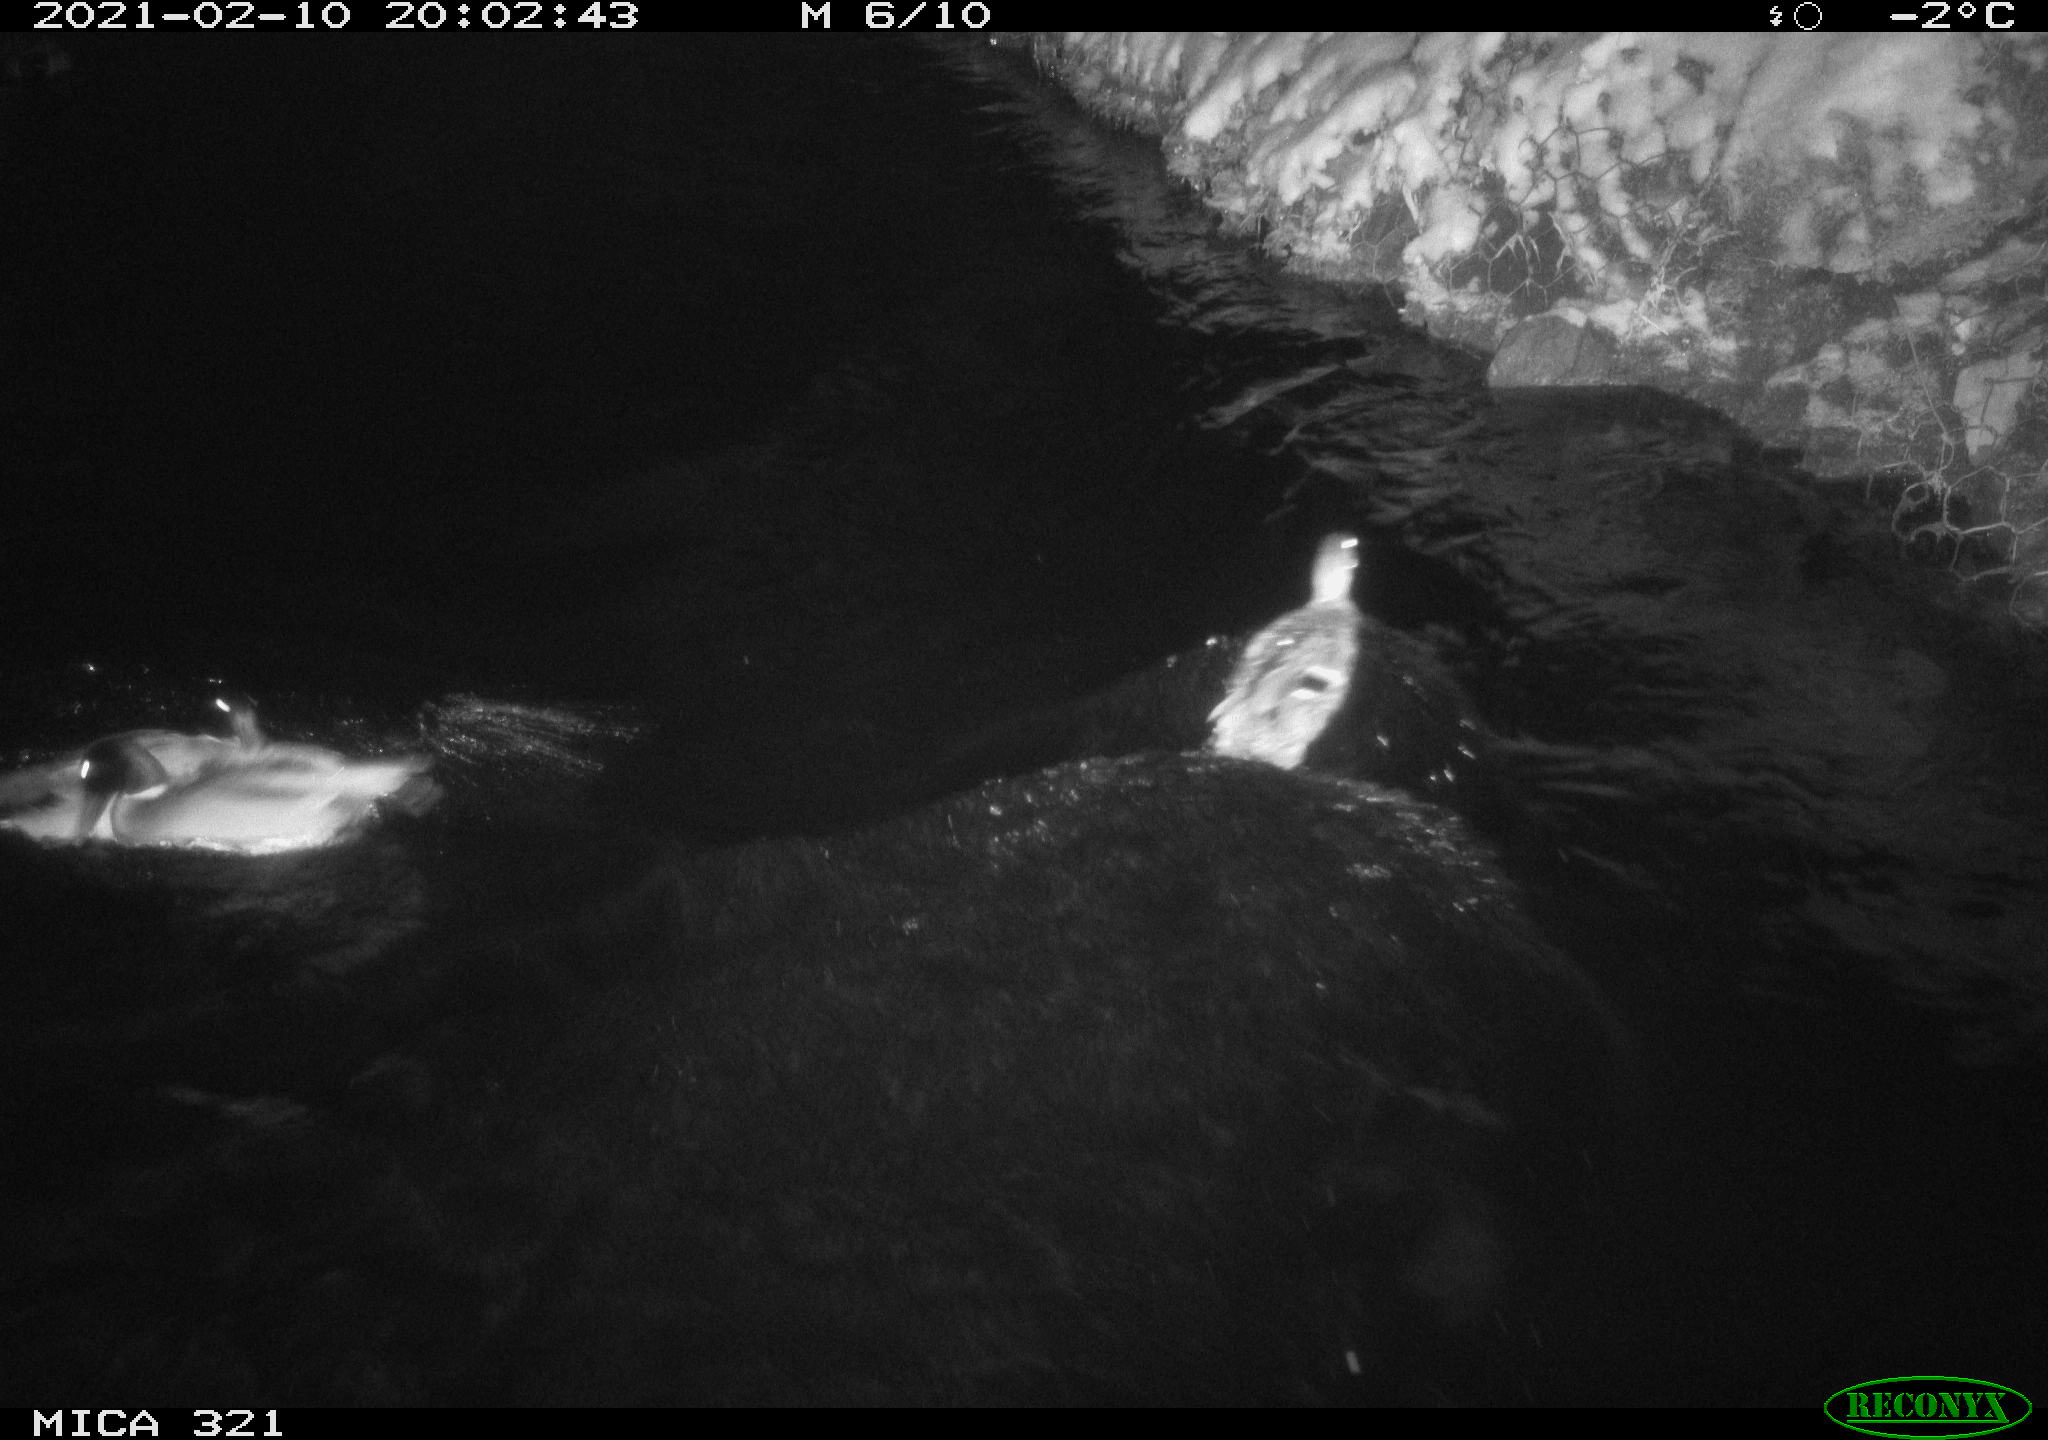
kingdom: Animalia
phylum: Chordata
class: Aves
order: Anseriformes
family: Anatidae
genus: Anas
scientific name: Anas platyrhynchos
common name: Mallard
